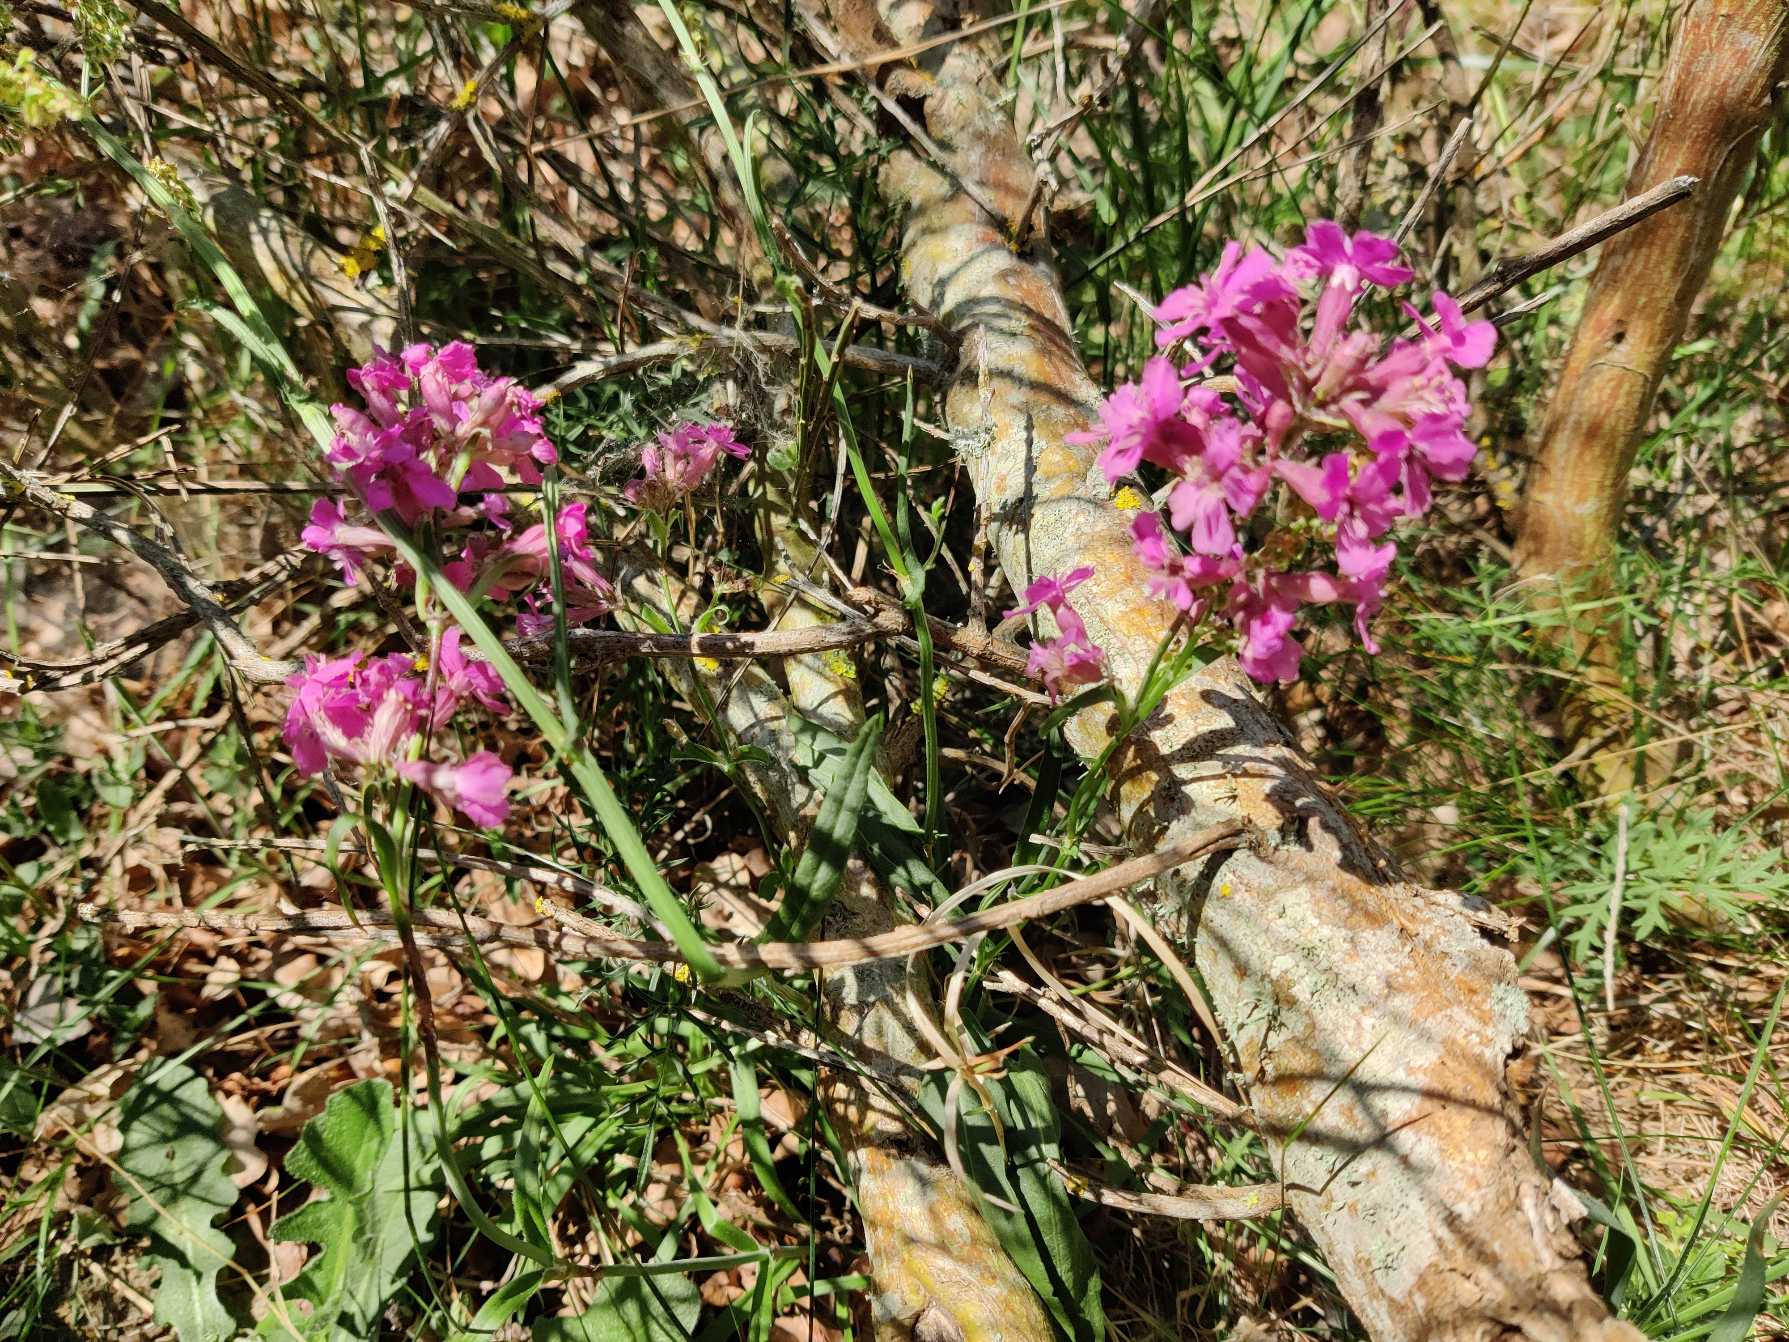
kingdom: Plantae
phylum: Tracheophyta
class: Magnoliopsida
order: Caryophyllales
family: Caryophyllaceae
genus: Viscaria
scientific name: Viscaria vulgaris
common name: Tjærenellike
